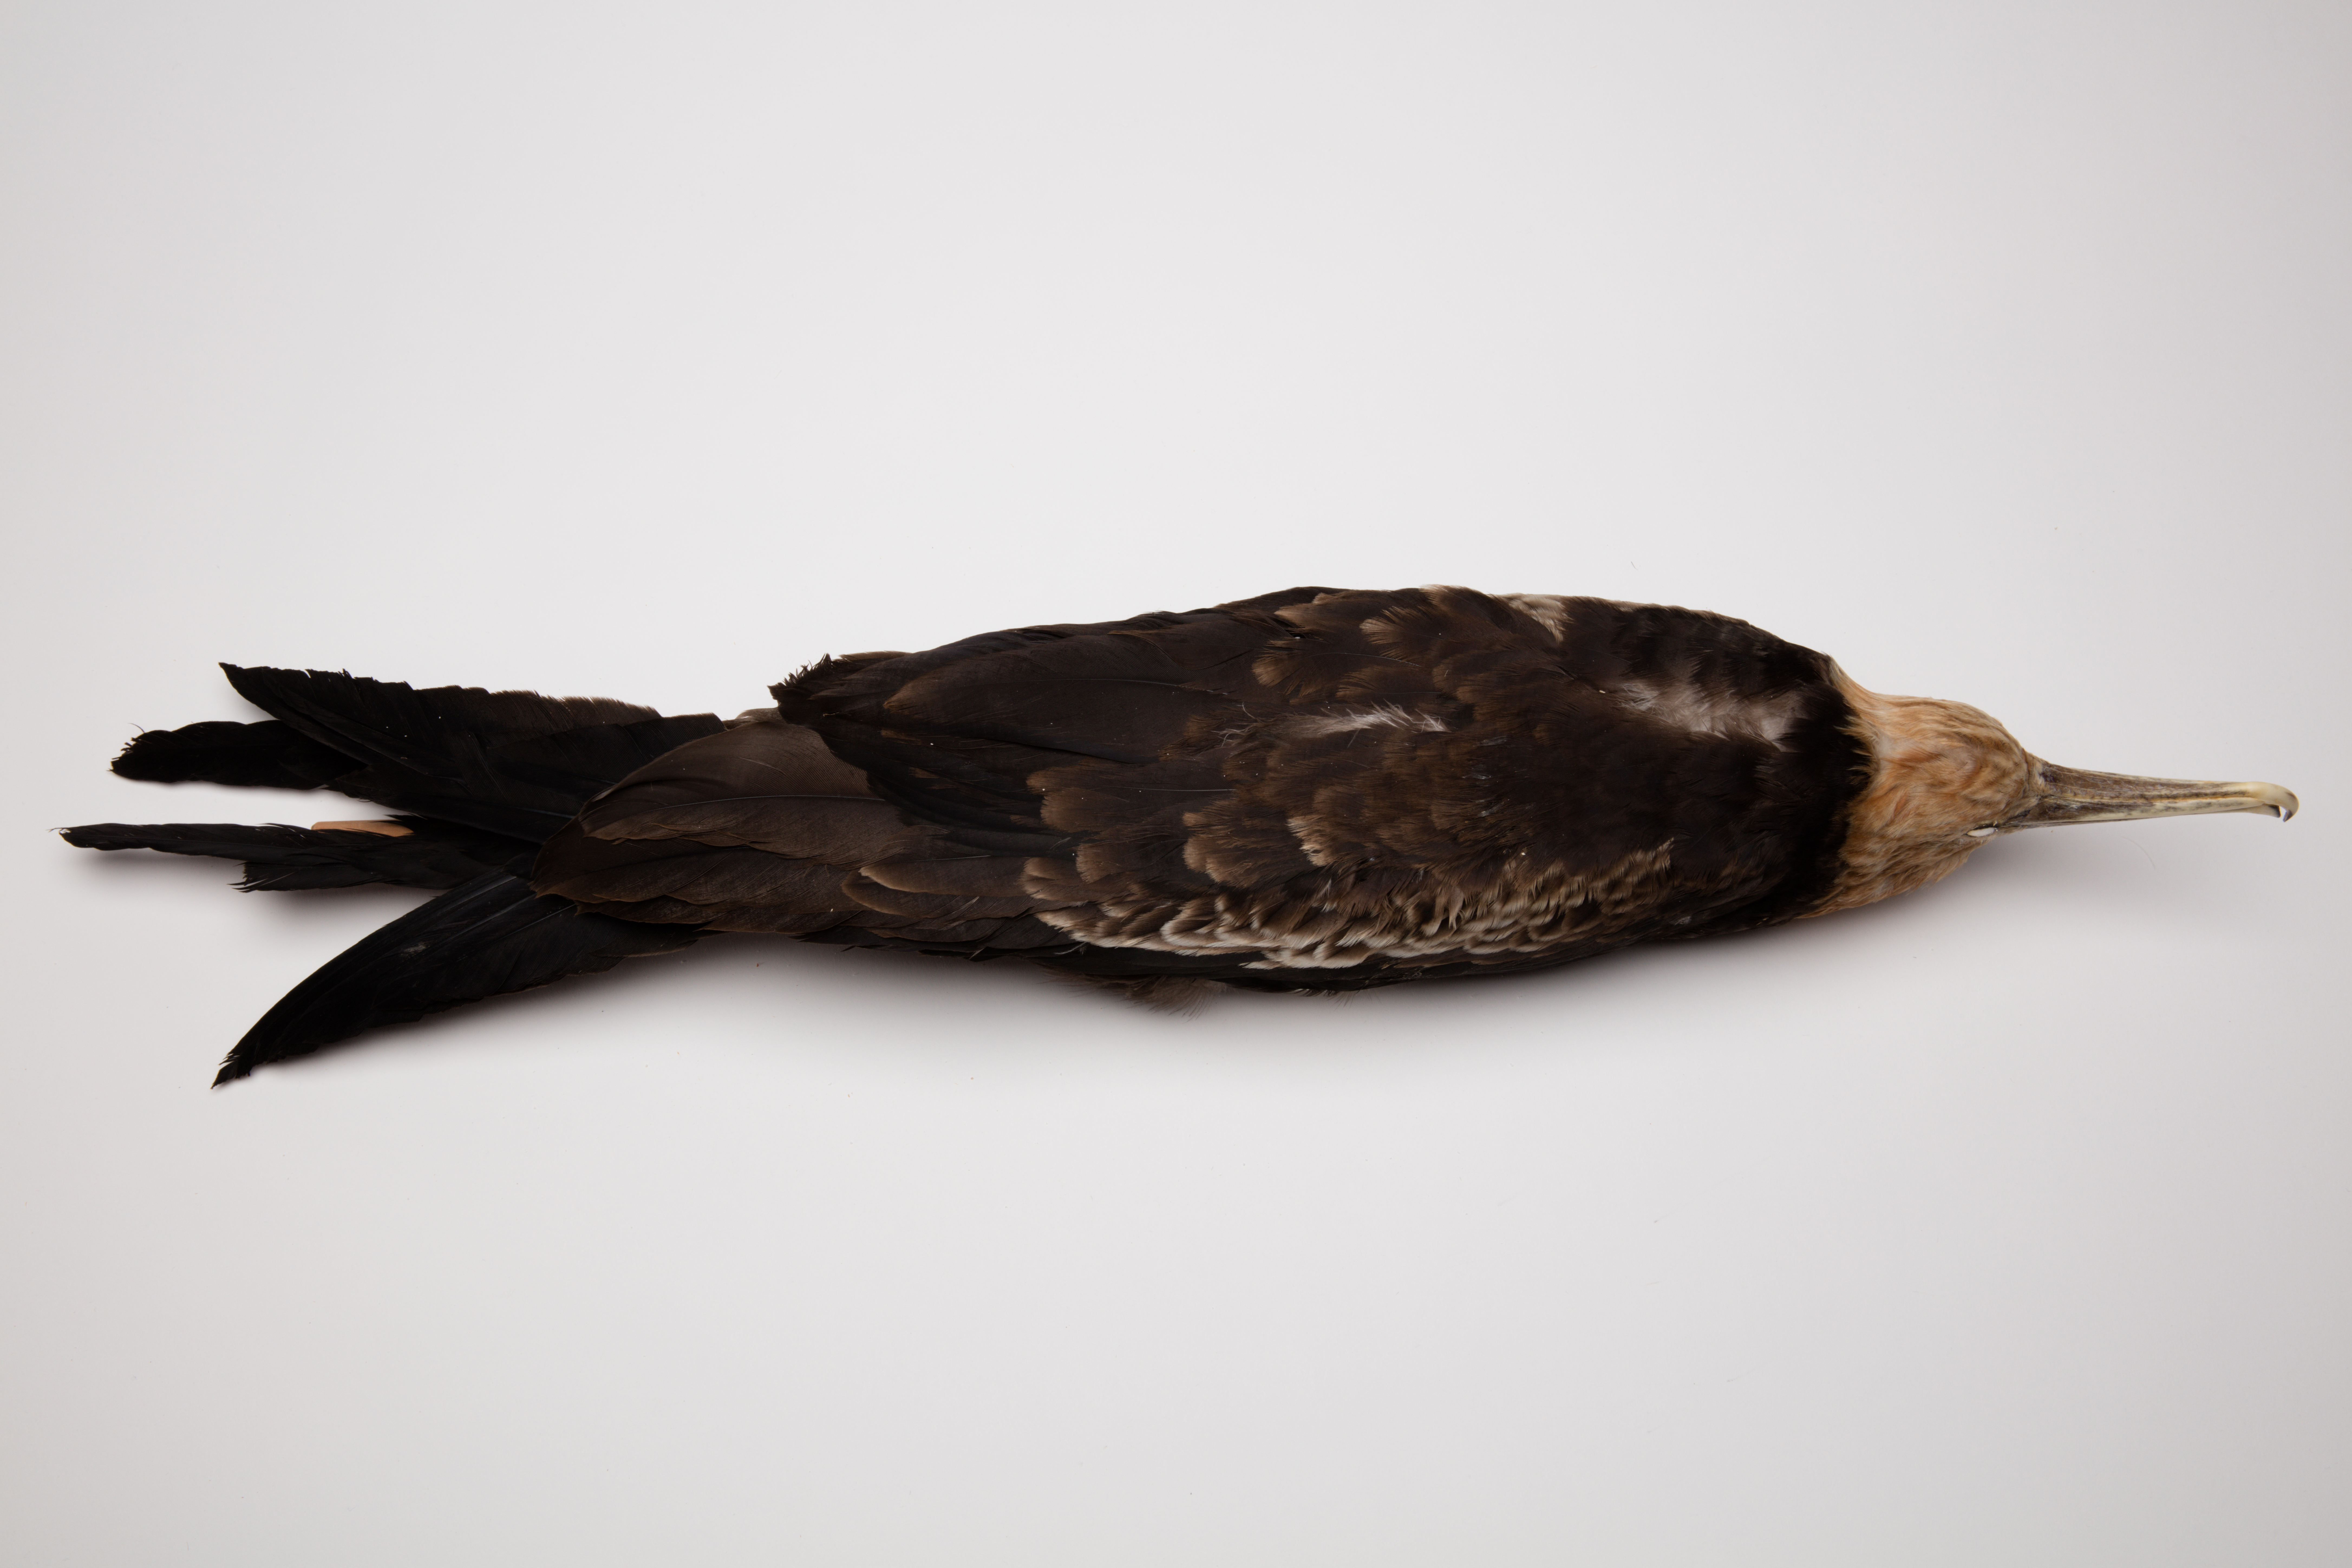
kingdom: Animalia
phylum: Chordata
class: Aves
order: Suliformes
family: Fregatidae
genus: Fregata
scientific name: Fregata ariel
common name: Lesser frigatebird
